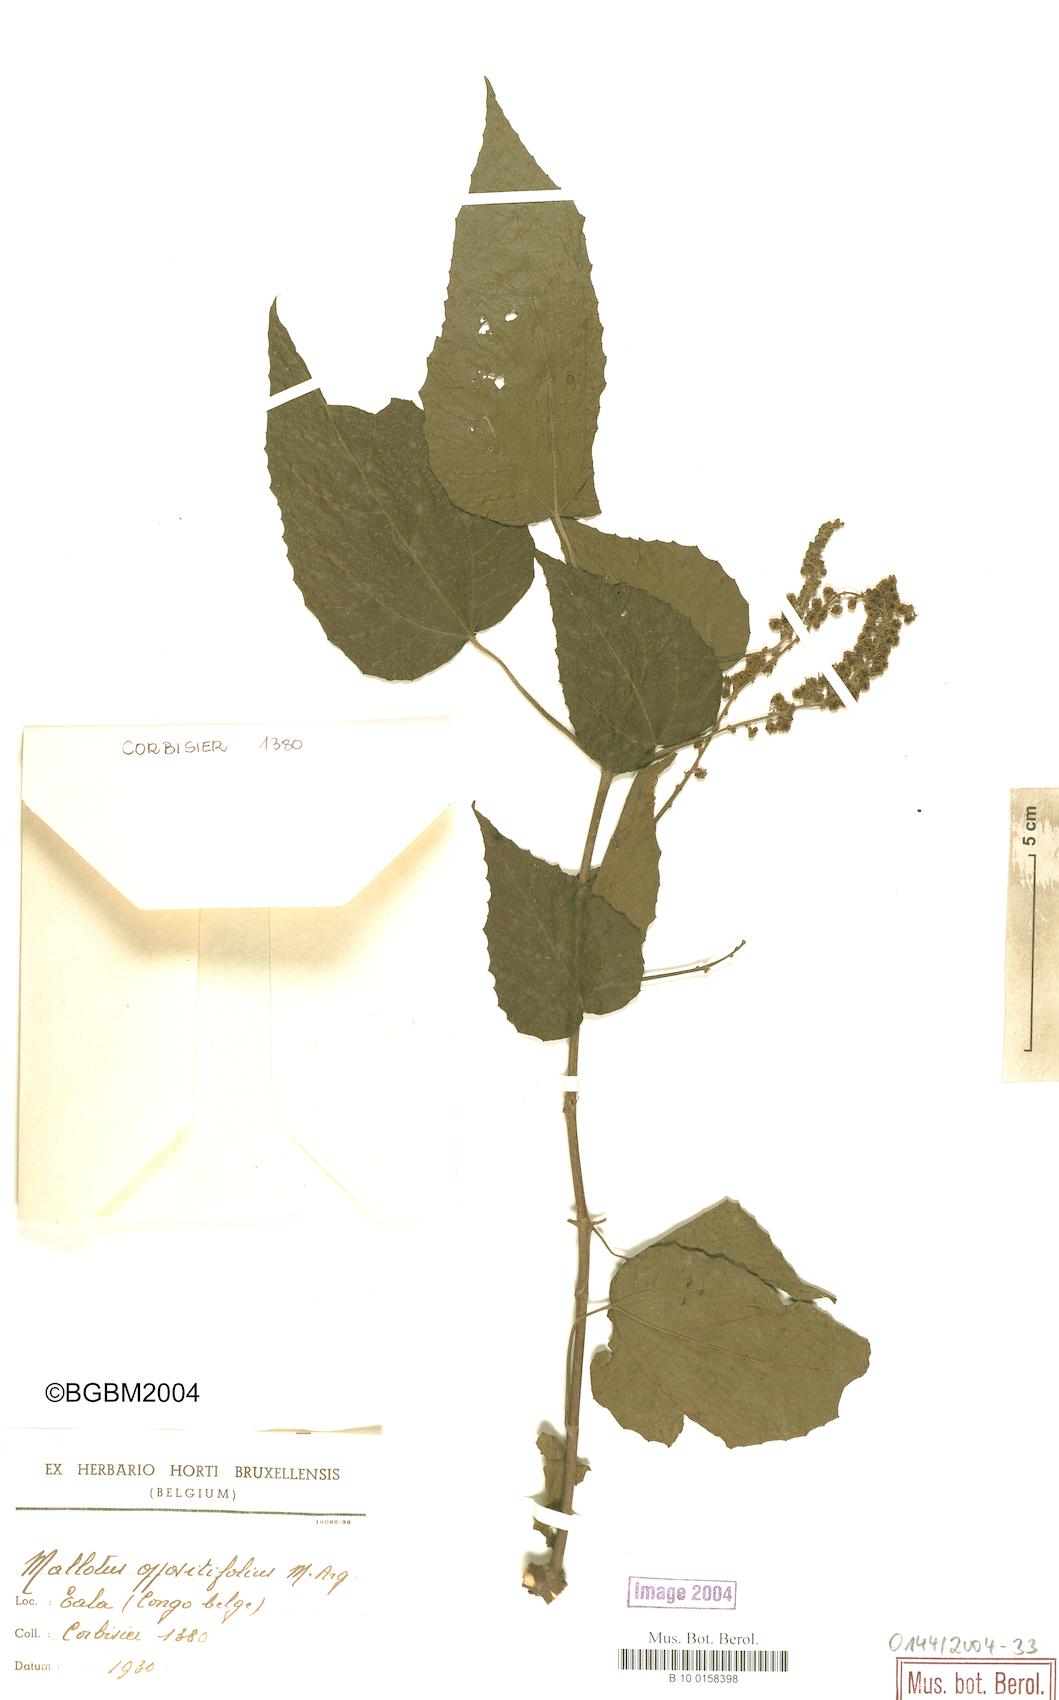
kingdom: Plantae
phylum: Tracheophyta
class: Magnoliopsida
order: Malpighiales
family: Euphorbiaceae
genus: Mallotus
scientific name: Mallotus oppositifolius
